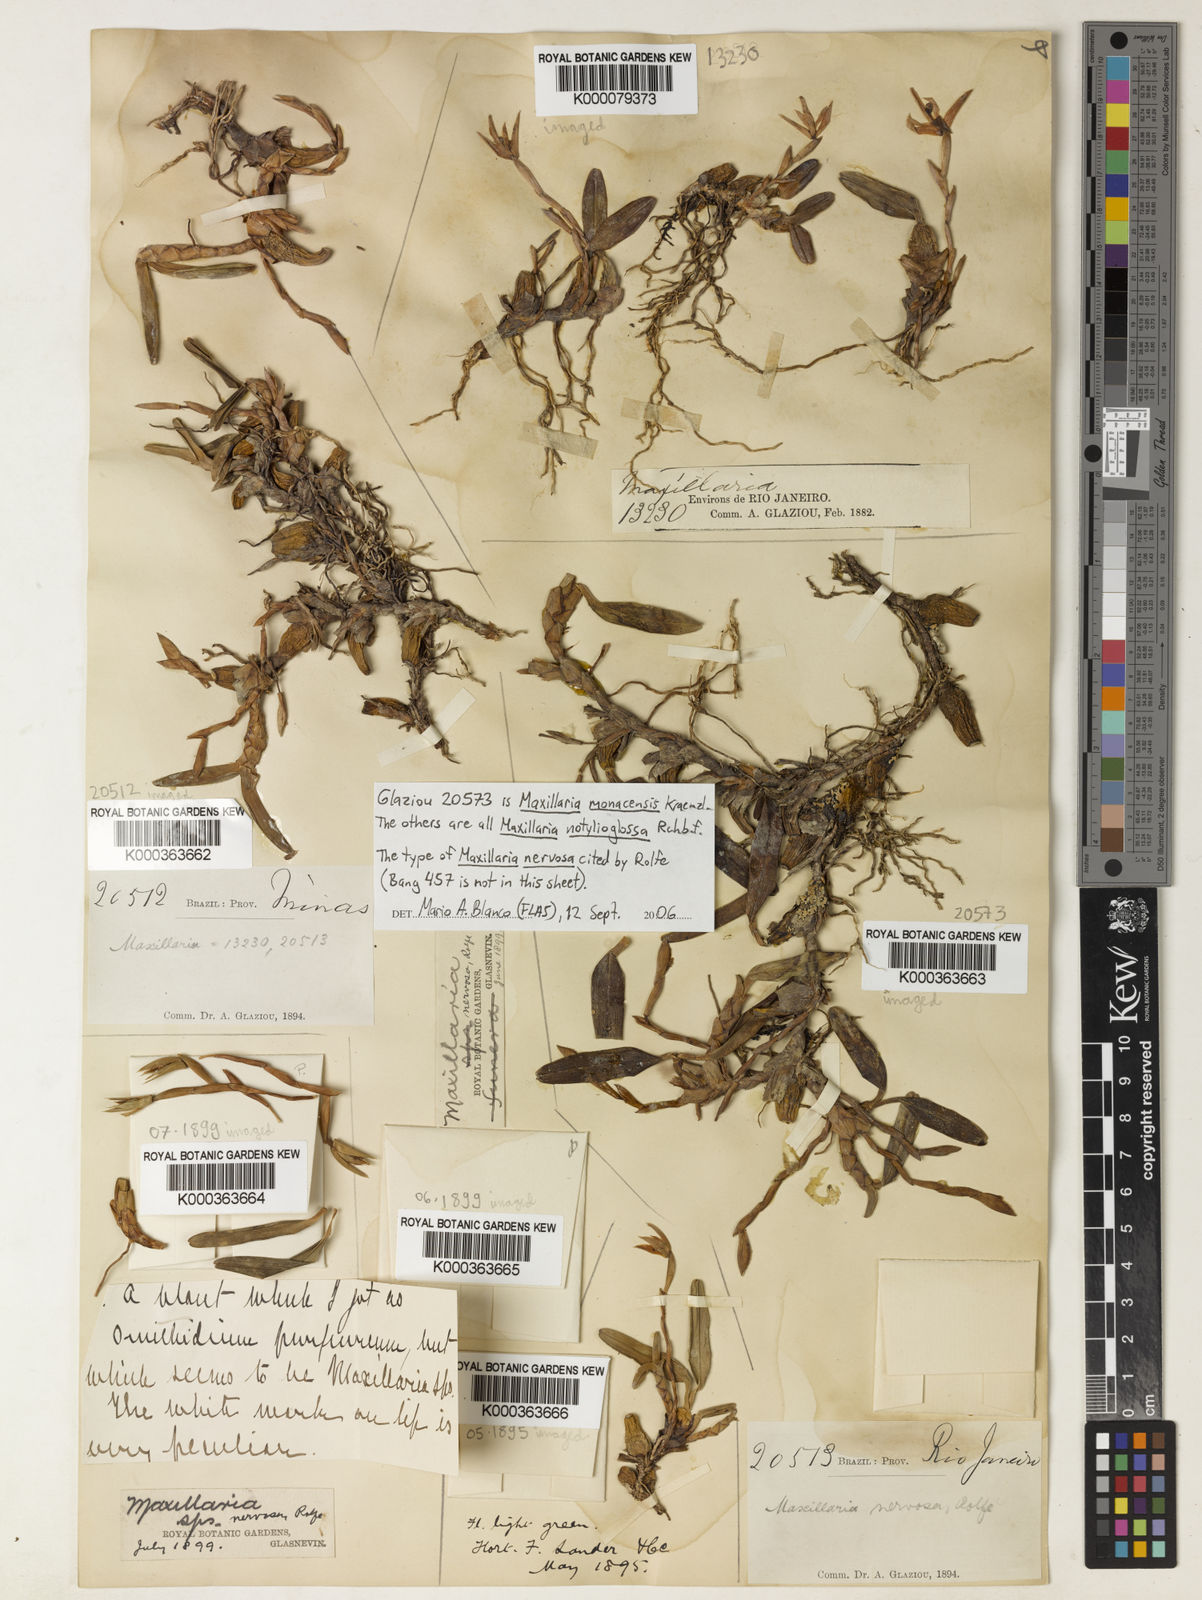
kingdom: Plantae
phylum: Tracheophyta
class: Liliopsida
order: Asparagales
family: Orchidaceae
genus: Maxillaria
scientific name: Maxillaria notylioglossa
